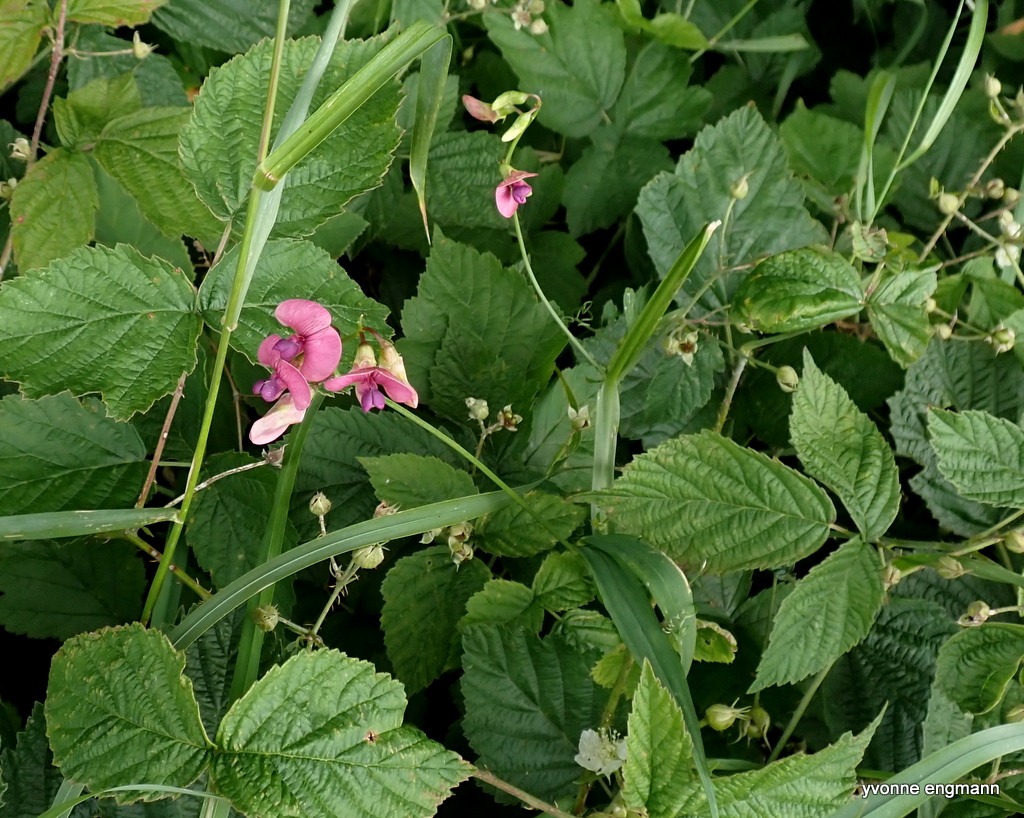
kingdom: Plantae
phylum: Tracheophyta
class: Magnoliopsida
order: Fabales
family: Fabaceae
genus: Lathyrus
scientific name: Lathyrus sylvestris
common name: Skov-fladbælg
